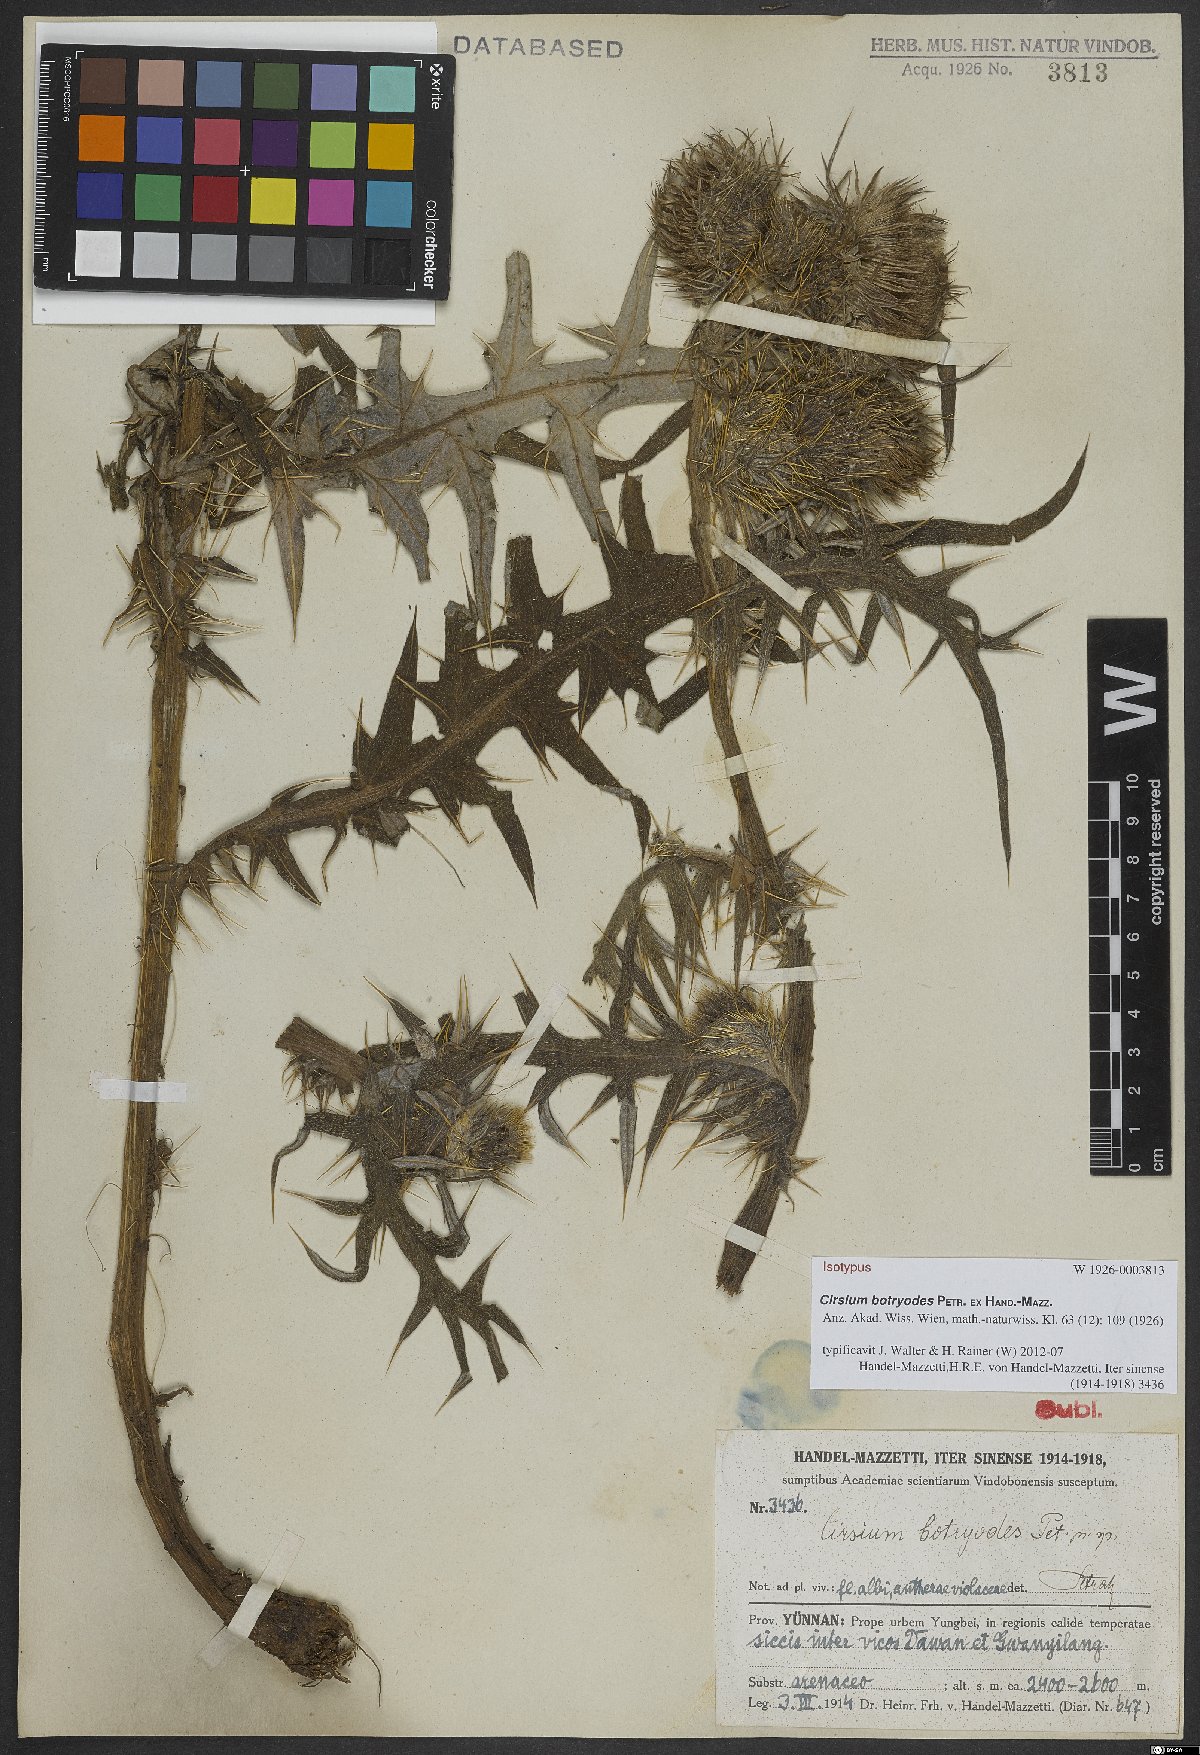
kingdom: Plantae
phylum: Tracheophyta
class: Magnoliopsida
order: Asterales
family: Asteraceae
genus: Cirsium
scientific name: Cirsium botryodes
